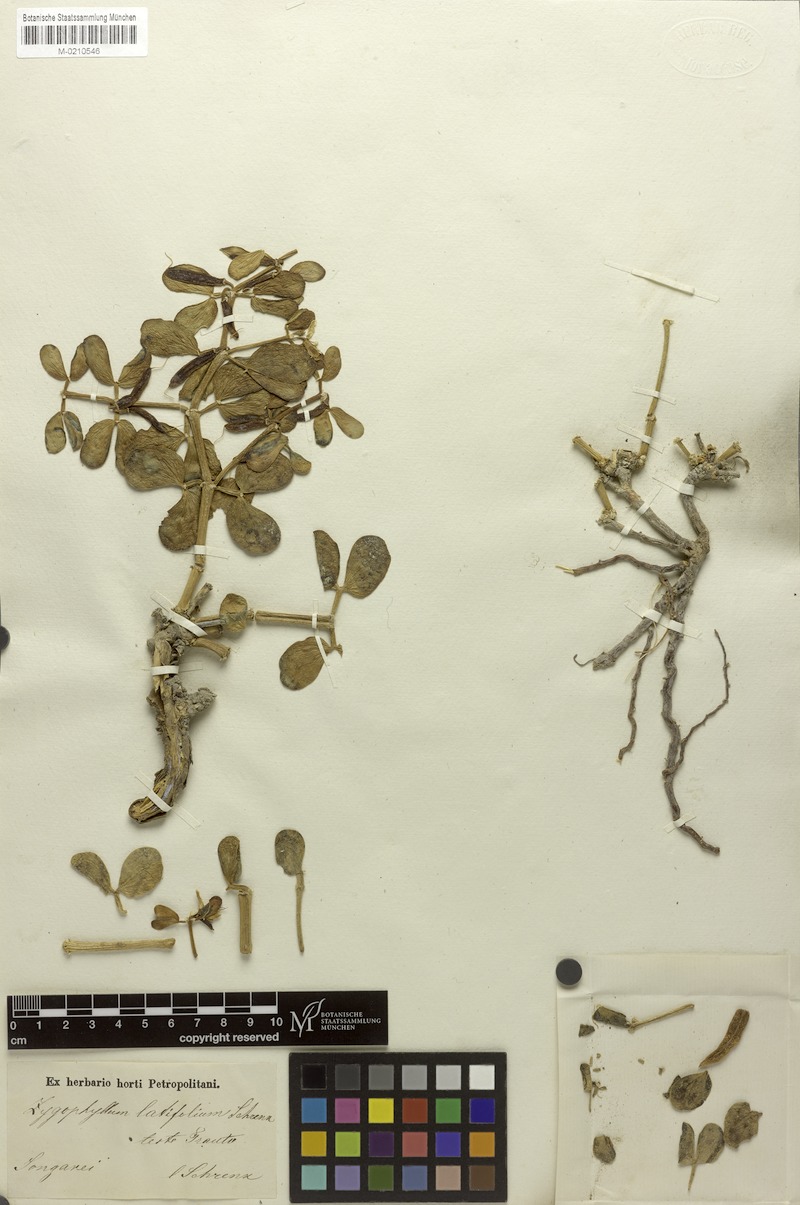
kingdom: Plantae
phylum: Tracheophyta
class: Magnoliopsida
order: Zygophyllales
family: Zygophyllaceae
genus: Zygophyllum
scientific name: Zygophyllum rosowii
